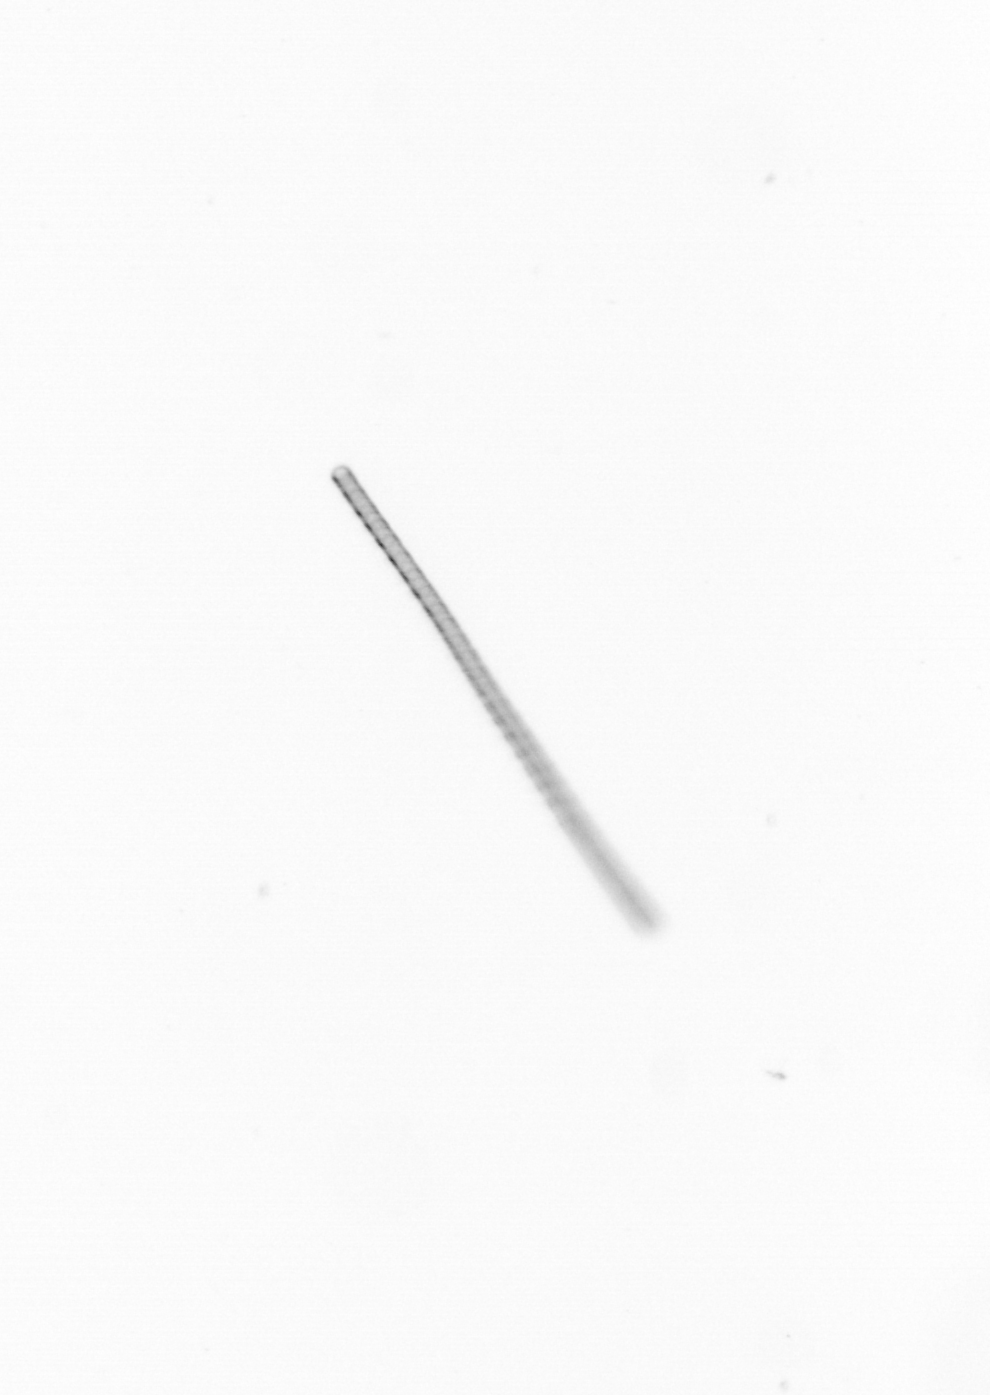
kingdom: Chromista
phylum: Ochrophyta
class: Bacillariophyceae
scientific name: Bacillariophyceae
